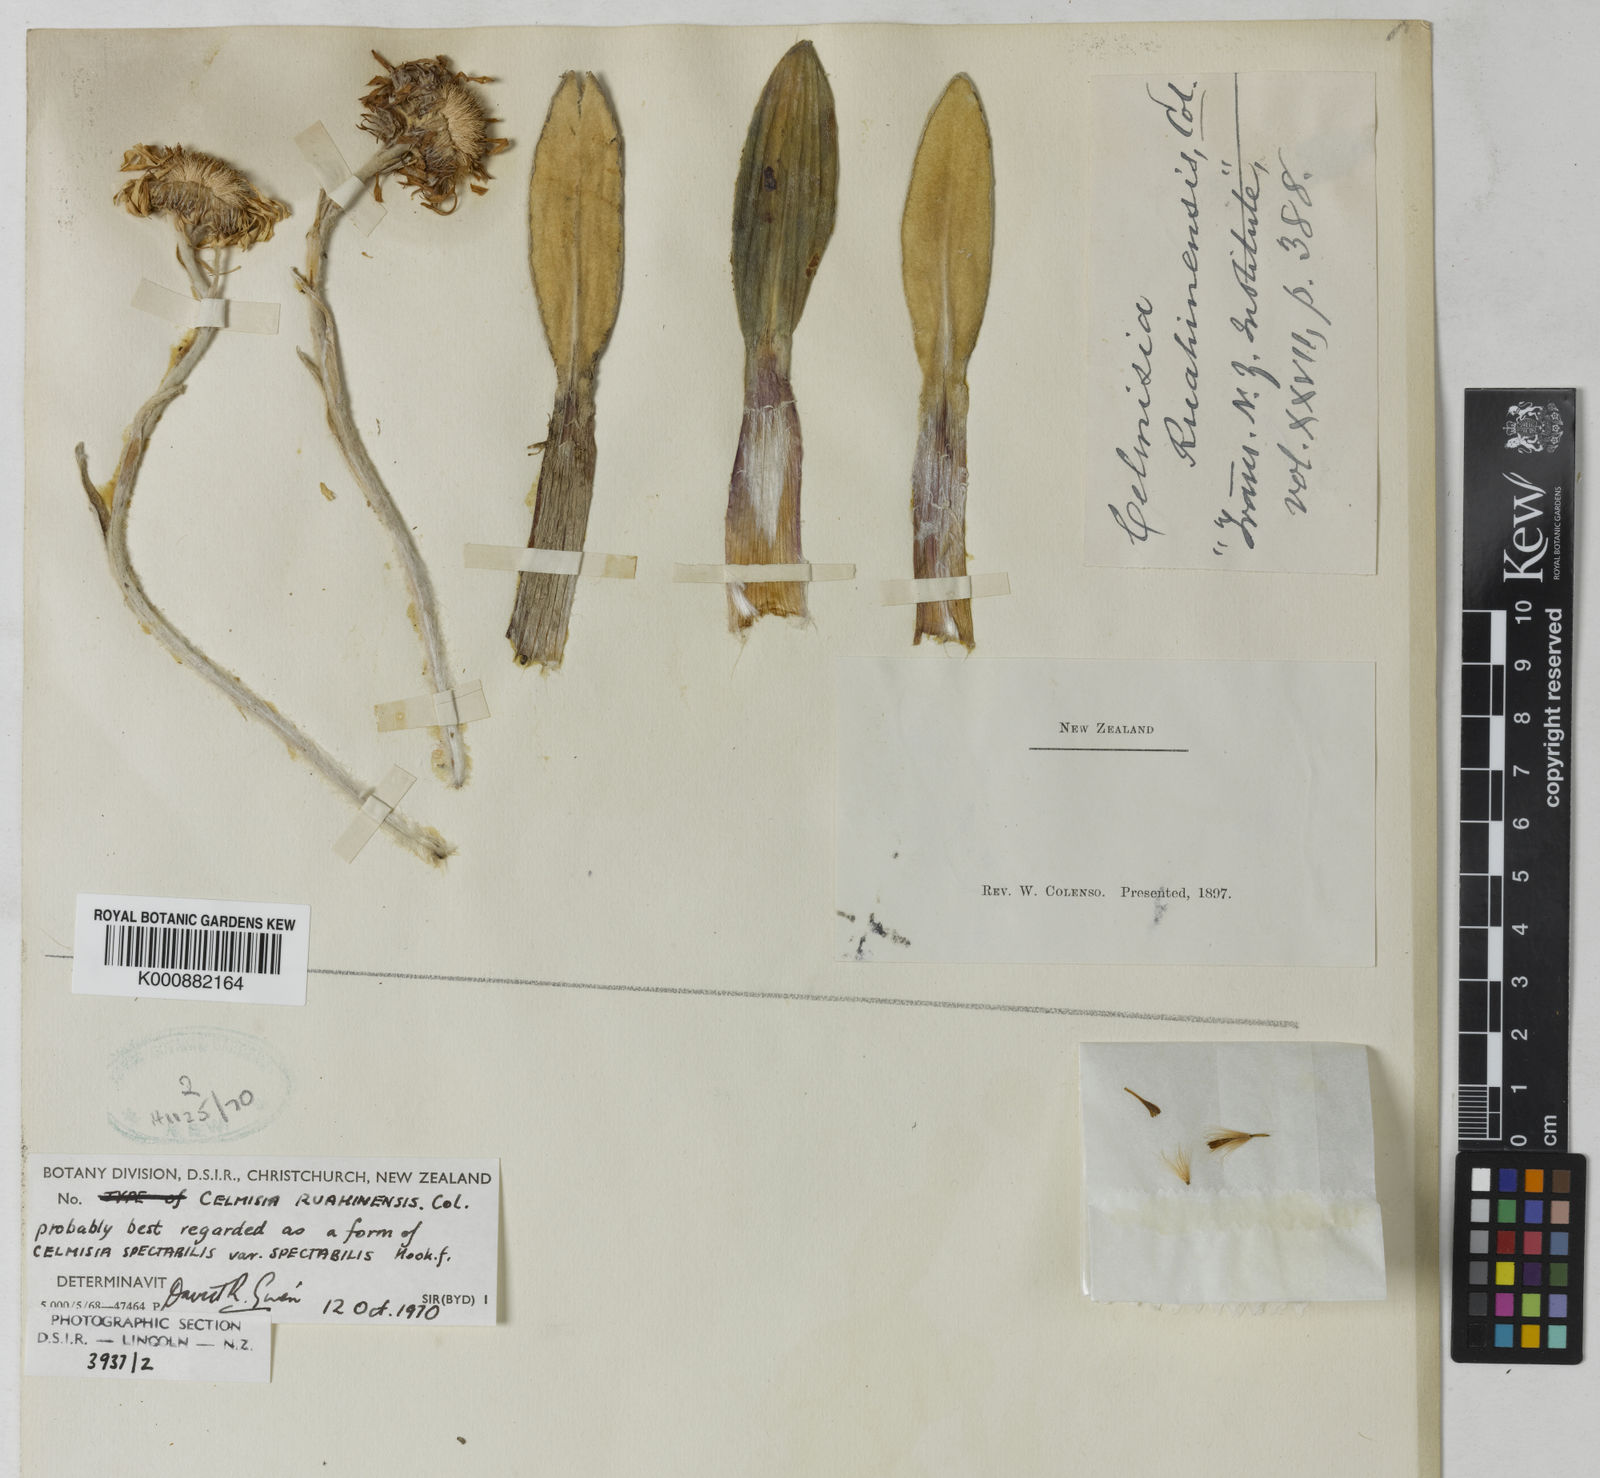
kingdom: Plantae
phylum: Tracheophyta
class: Magnoliopsida
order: Asterales
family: Asteraceae
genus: Celmisia
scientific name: Celmisia spectabilis
